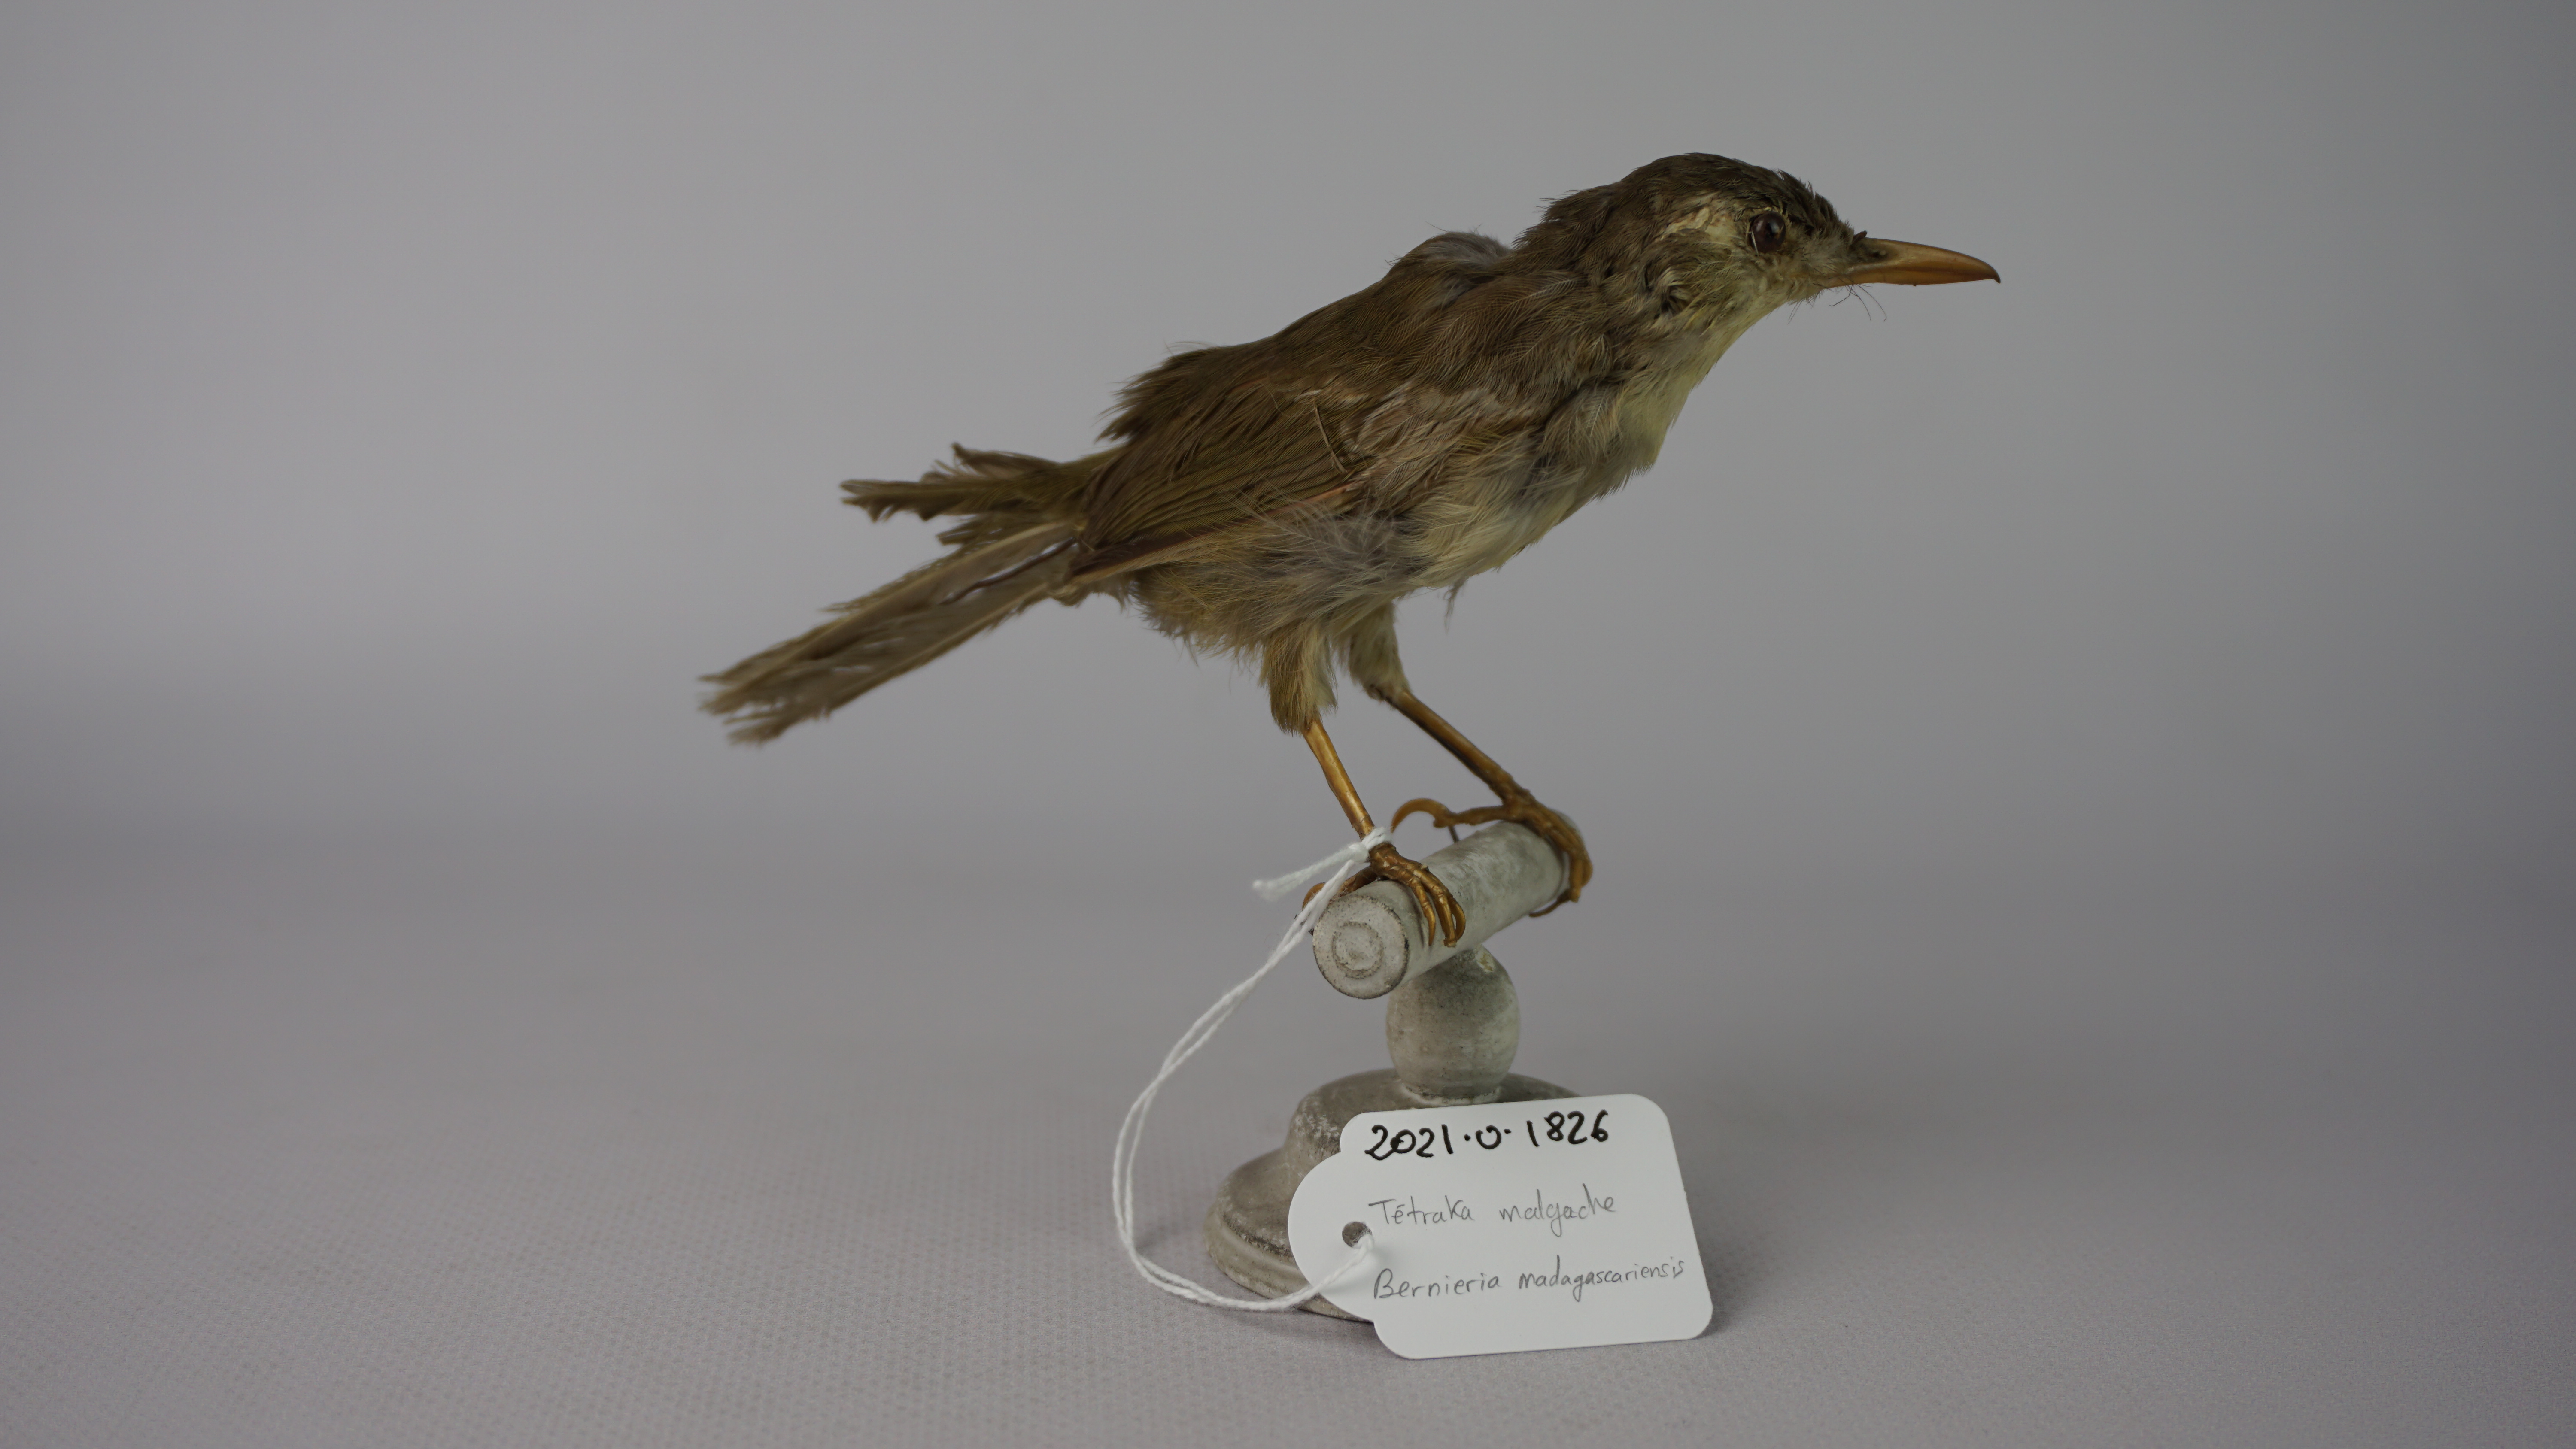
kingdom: Animalia
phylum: Chordata
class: Aves
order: Passeriformes
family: Bernieridae
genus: Bernieria
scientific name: Bernieria madagascariensis
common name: Long-billed bernieria
